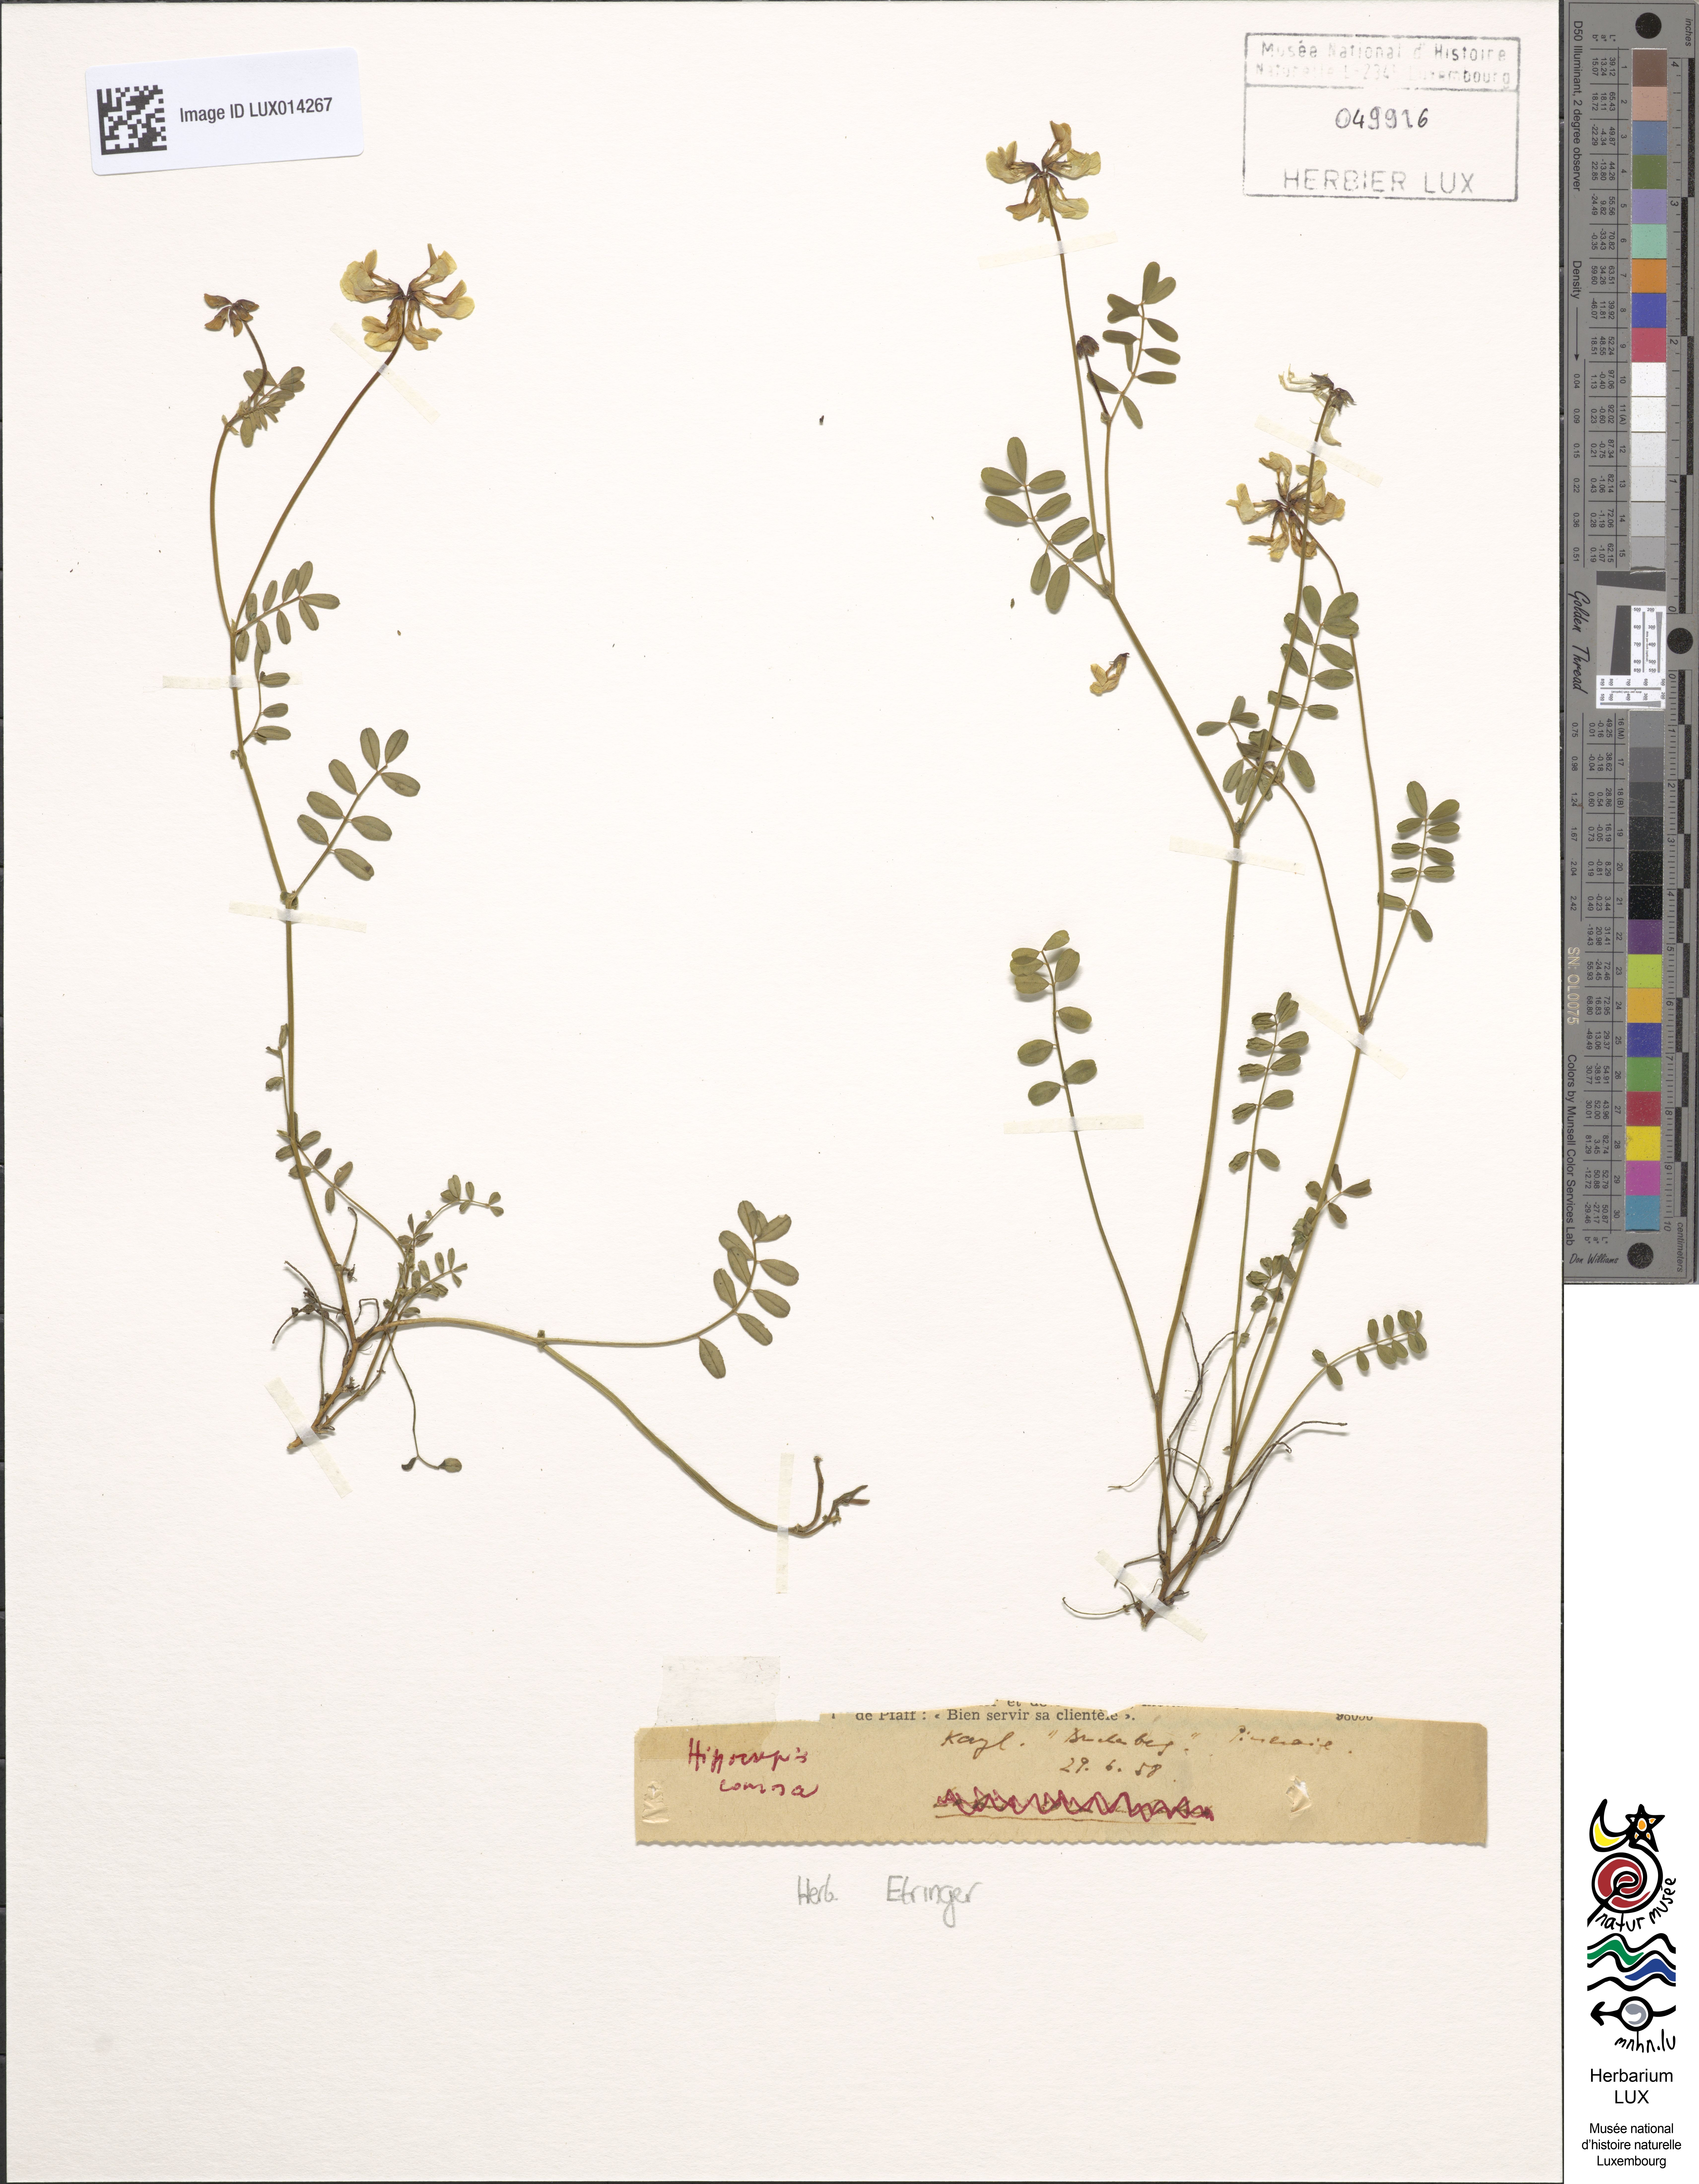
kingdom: Plantae
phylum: Tracheophyta
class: Magnoliopsida
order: Fabales
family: Fabaceae
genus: Hippocrepis
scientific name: Hippocrepis comosa
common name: Horseshoe vetch
